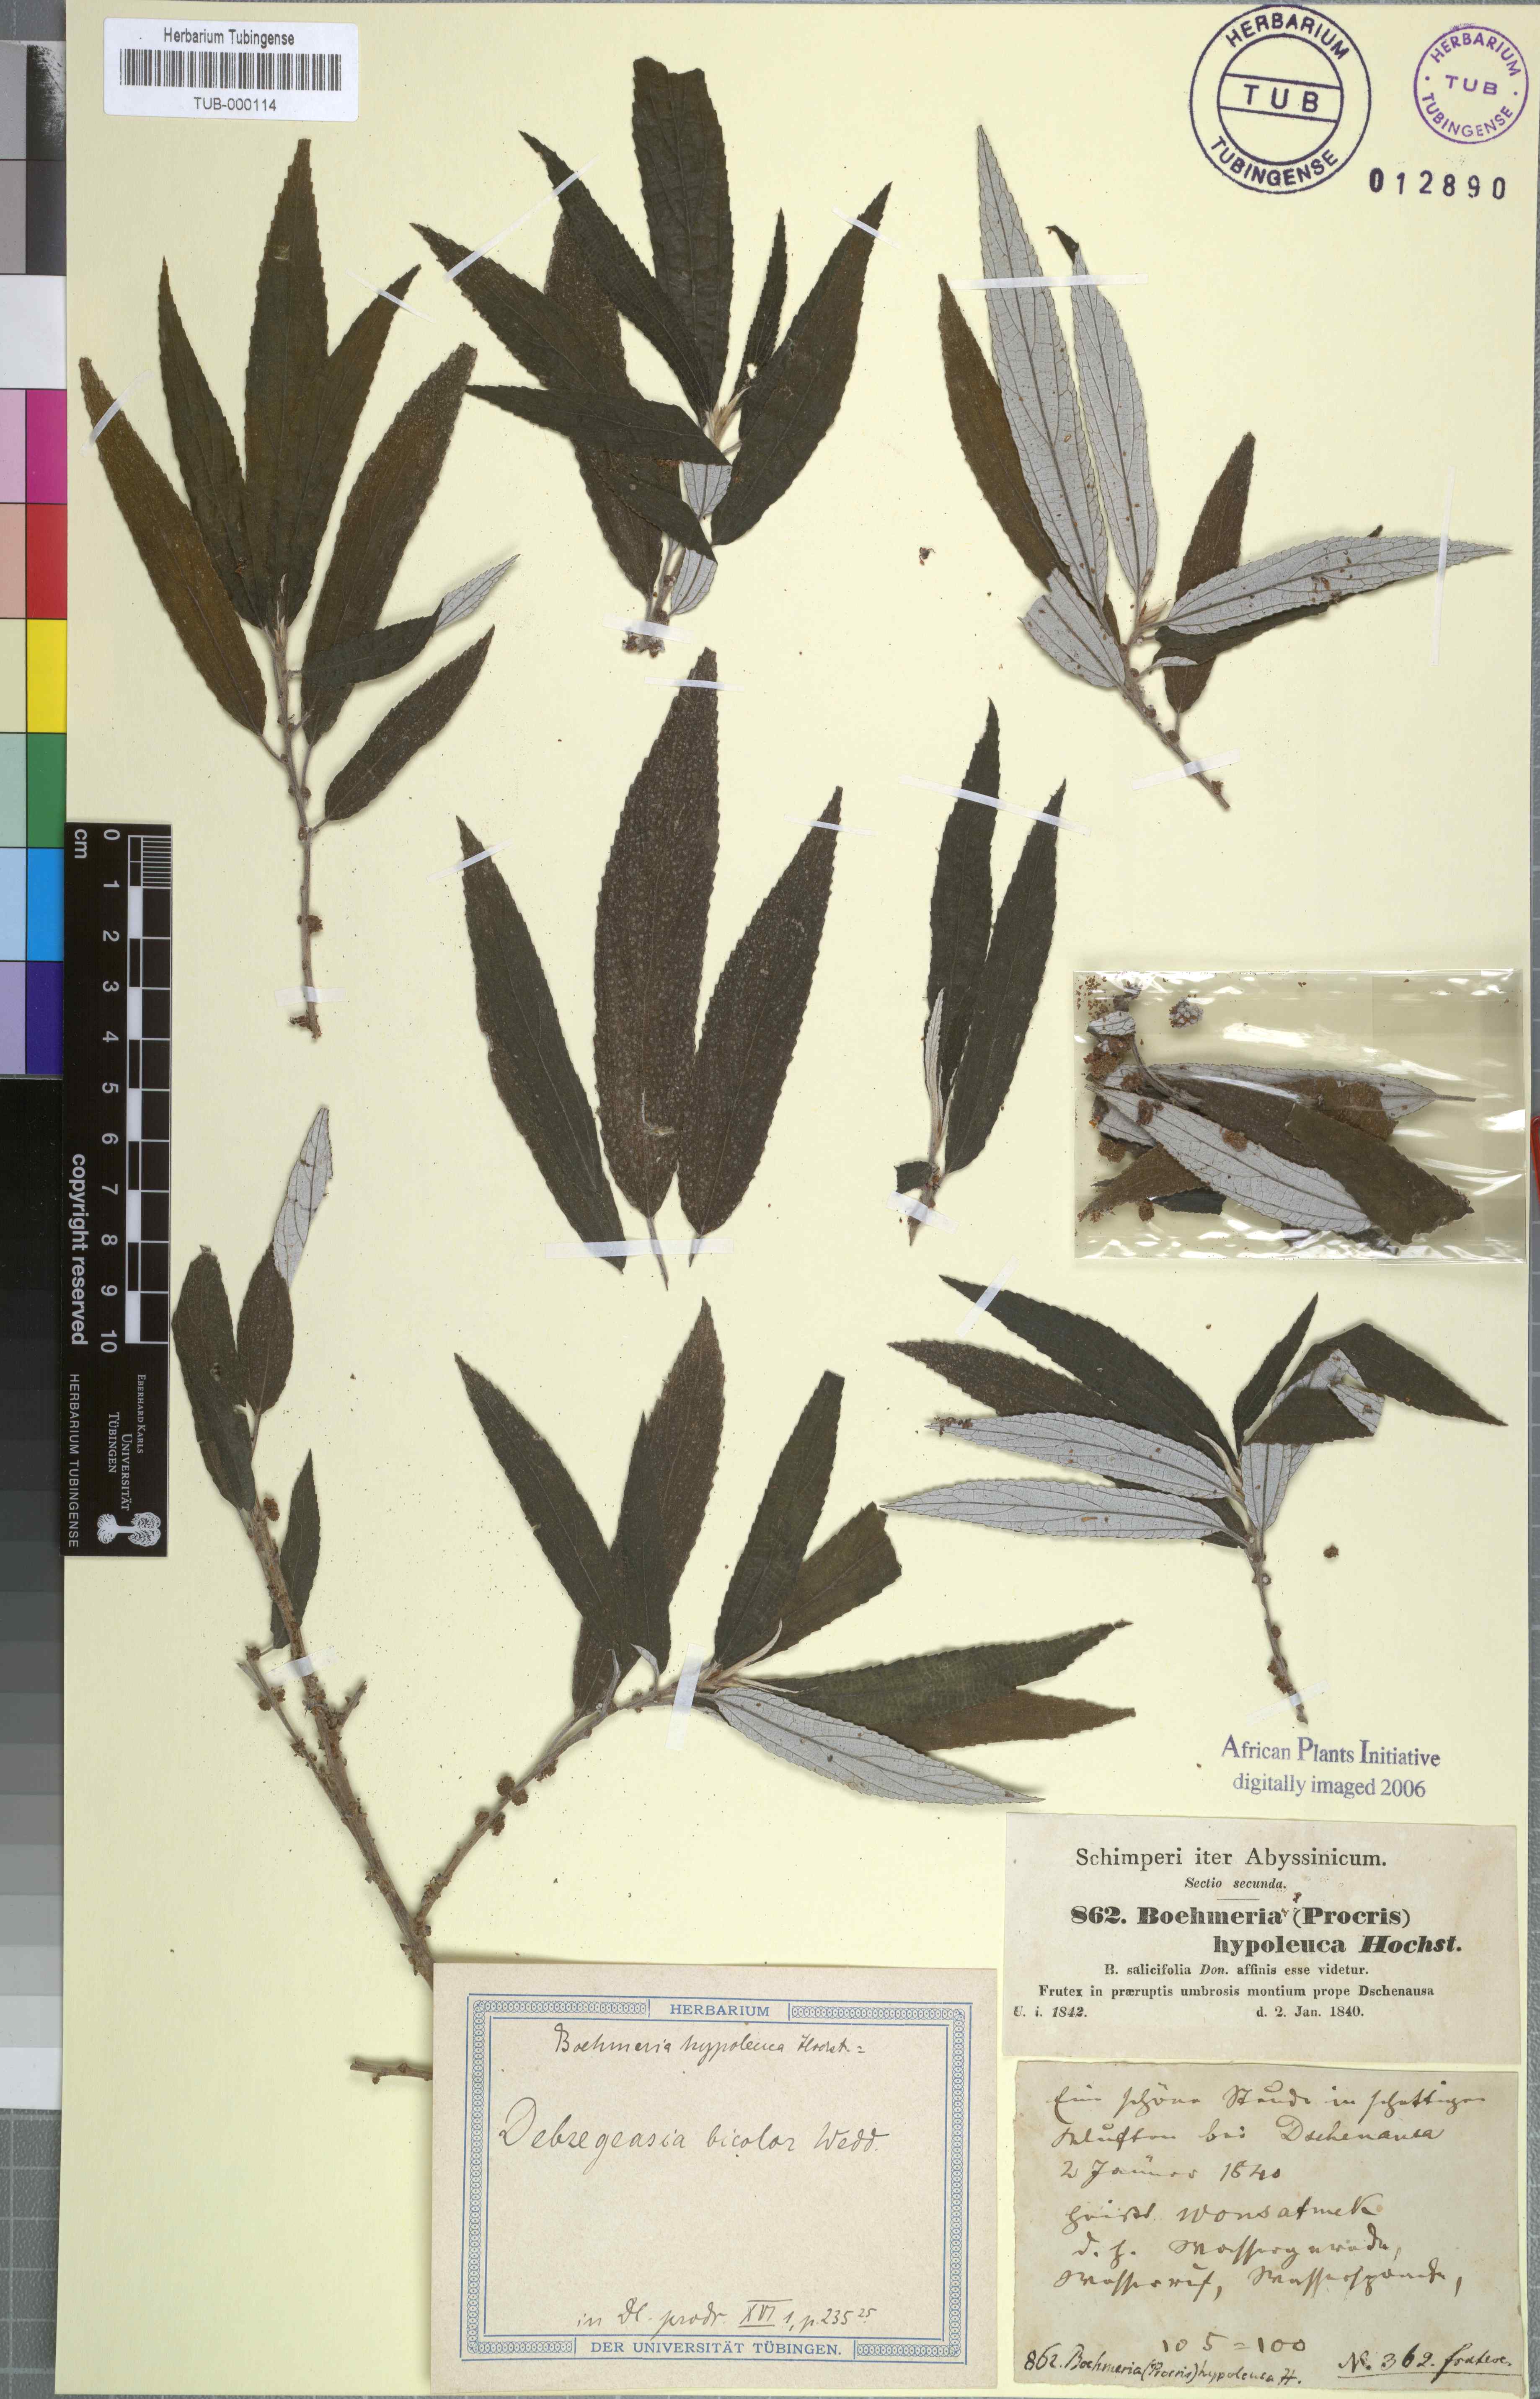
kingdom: Plantae
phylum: Tracheophyta
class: Magnoliopsida
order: Rosales
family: Urticaceae
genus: Debregeasia
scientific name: Debregeasia saeneb
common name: Himalayan wild rhea
